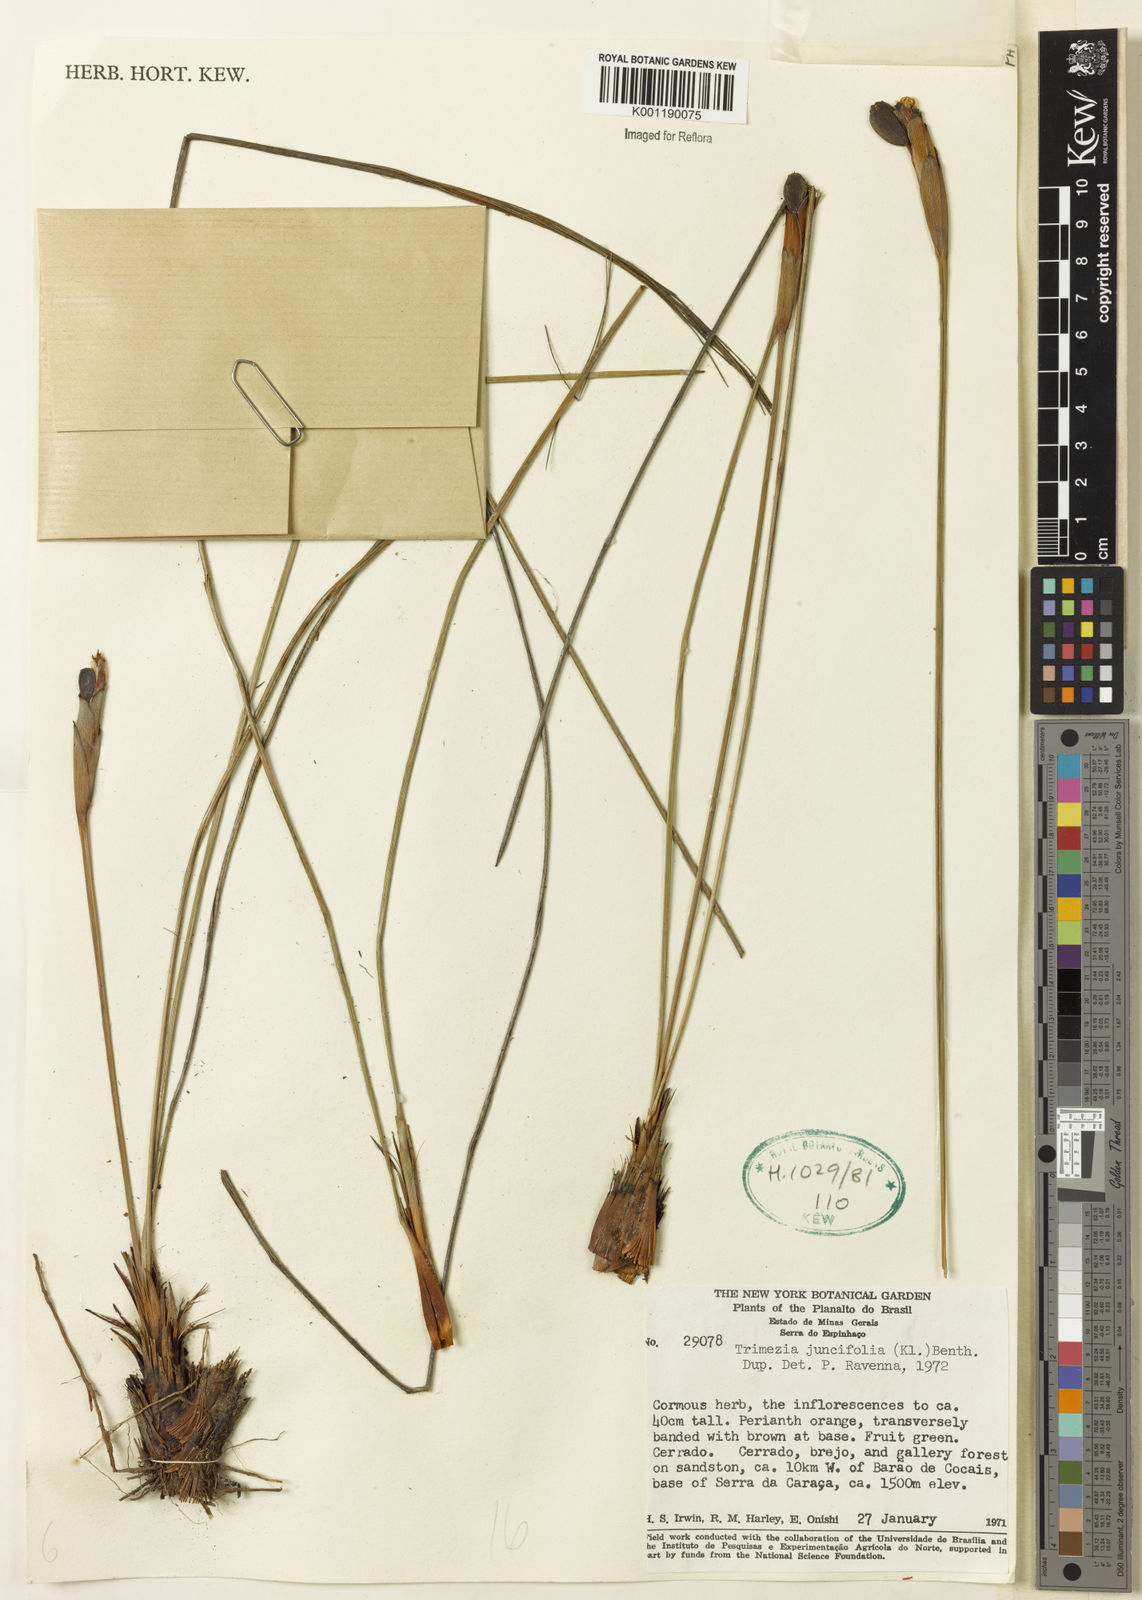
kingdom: Plantae
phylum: Tracheophyta
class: Liliopsida
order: Asparagales
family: Iridaceae
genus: Trimezia
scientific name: Trimezia juncifolia
